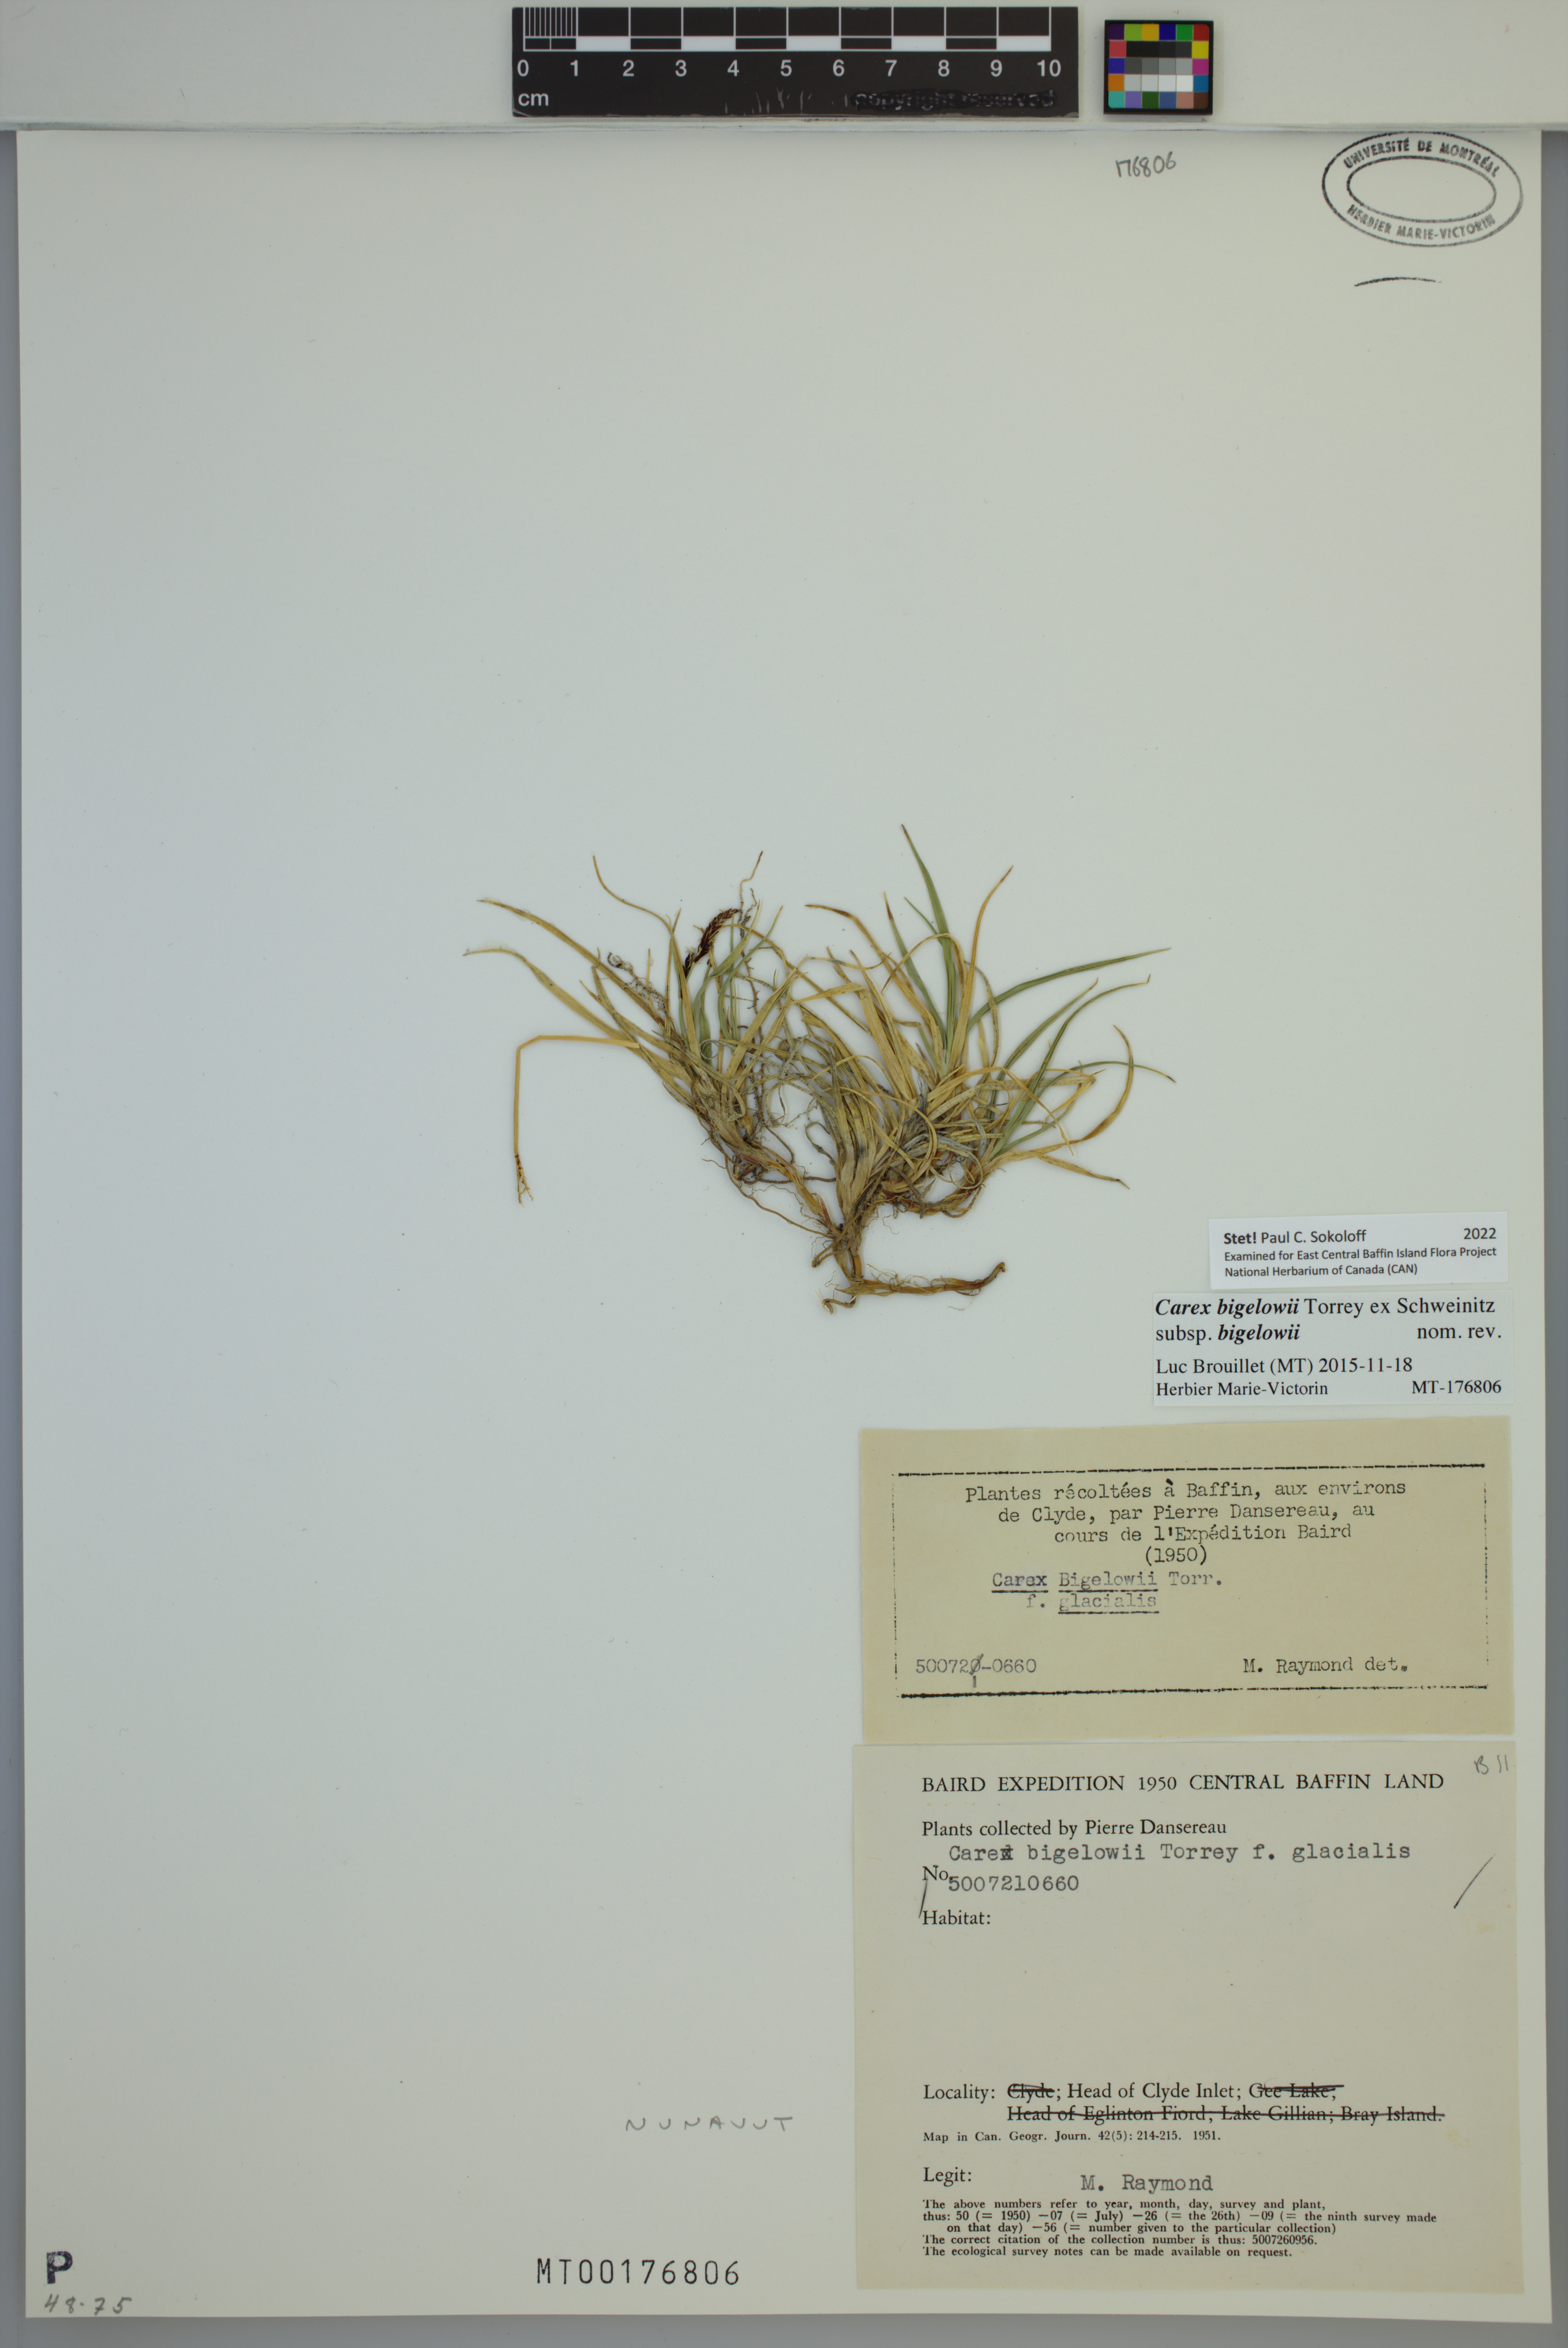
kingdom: Plantae
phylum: Tracheophyta
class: Liliopsida
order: Poales
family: Cyperaceae
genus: Carex
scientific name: Carex bigelowii
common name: Stiff sedge
